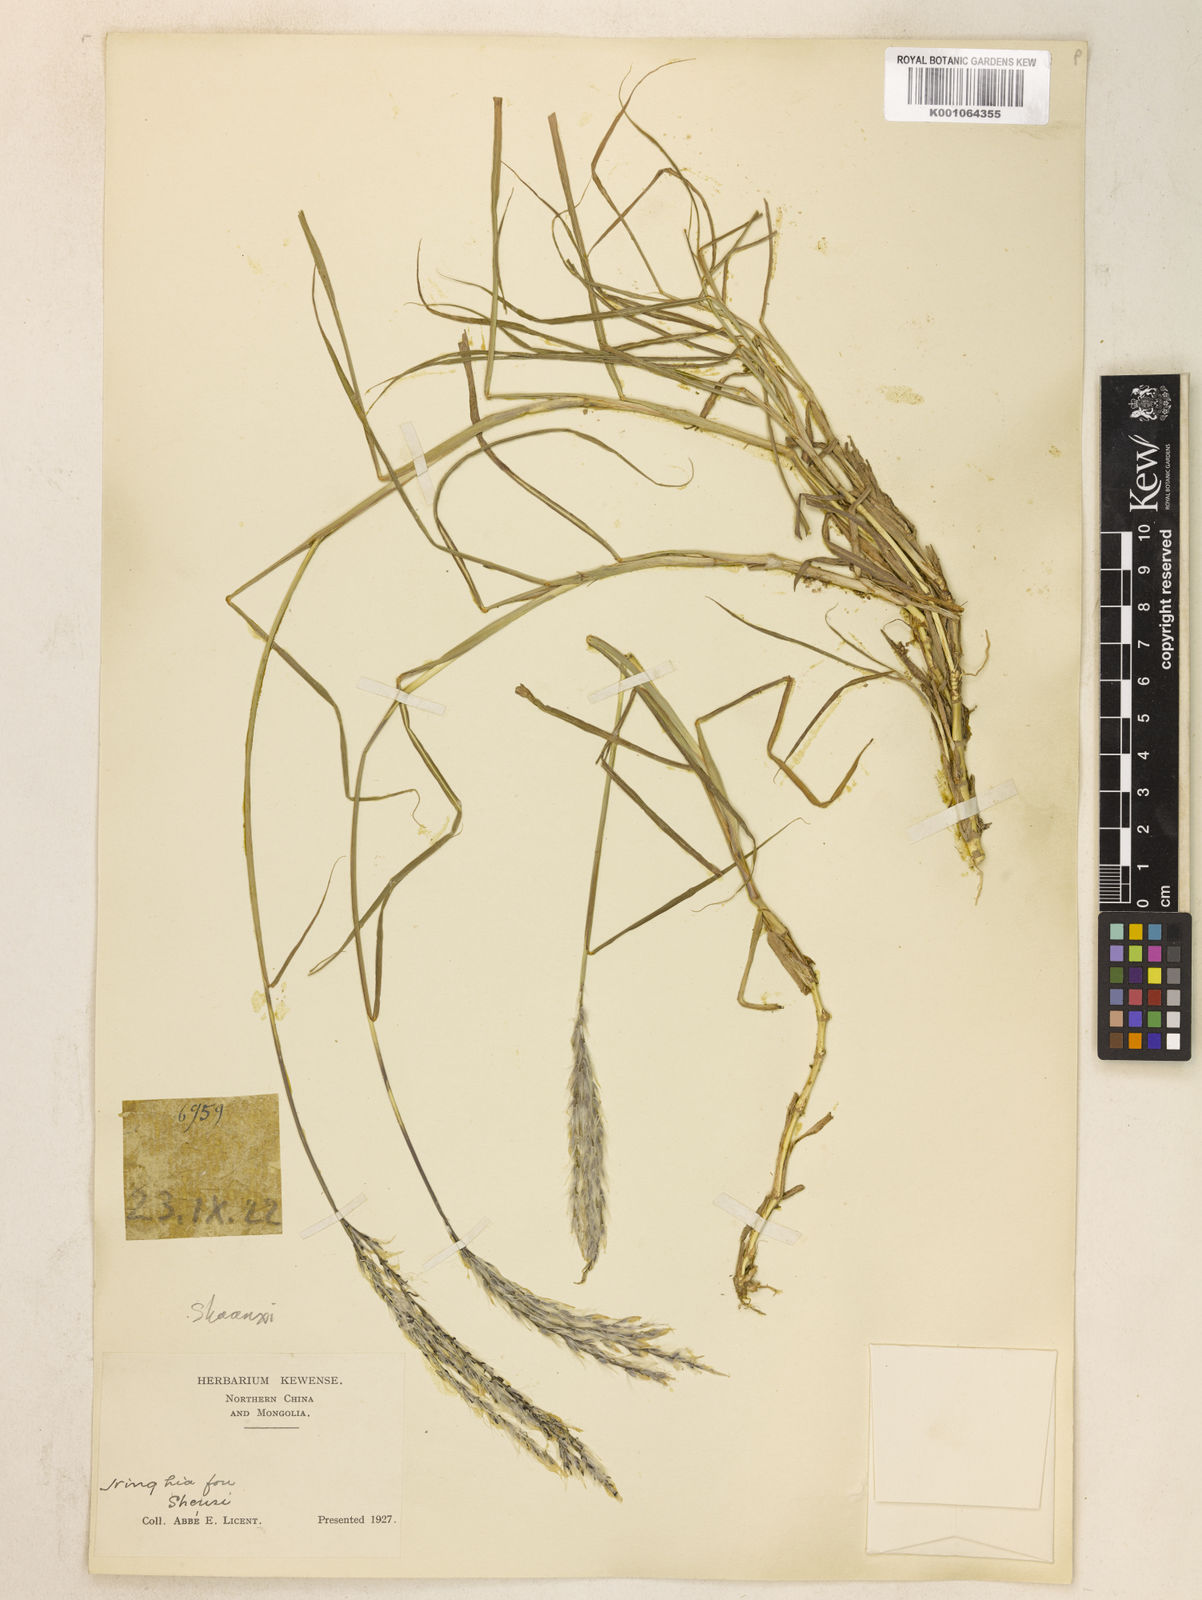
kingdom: Plantae
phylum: Tracheophyta
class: Liliopsida
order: Poales
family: Poaceae
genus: Miscanthus
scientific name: Miscanthus
